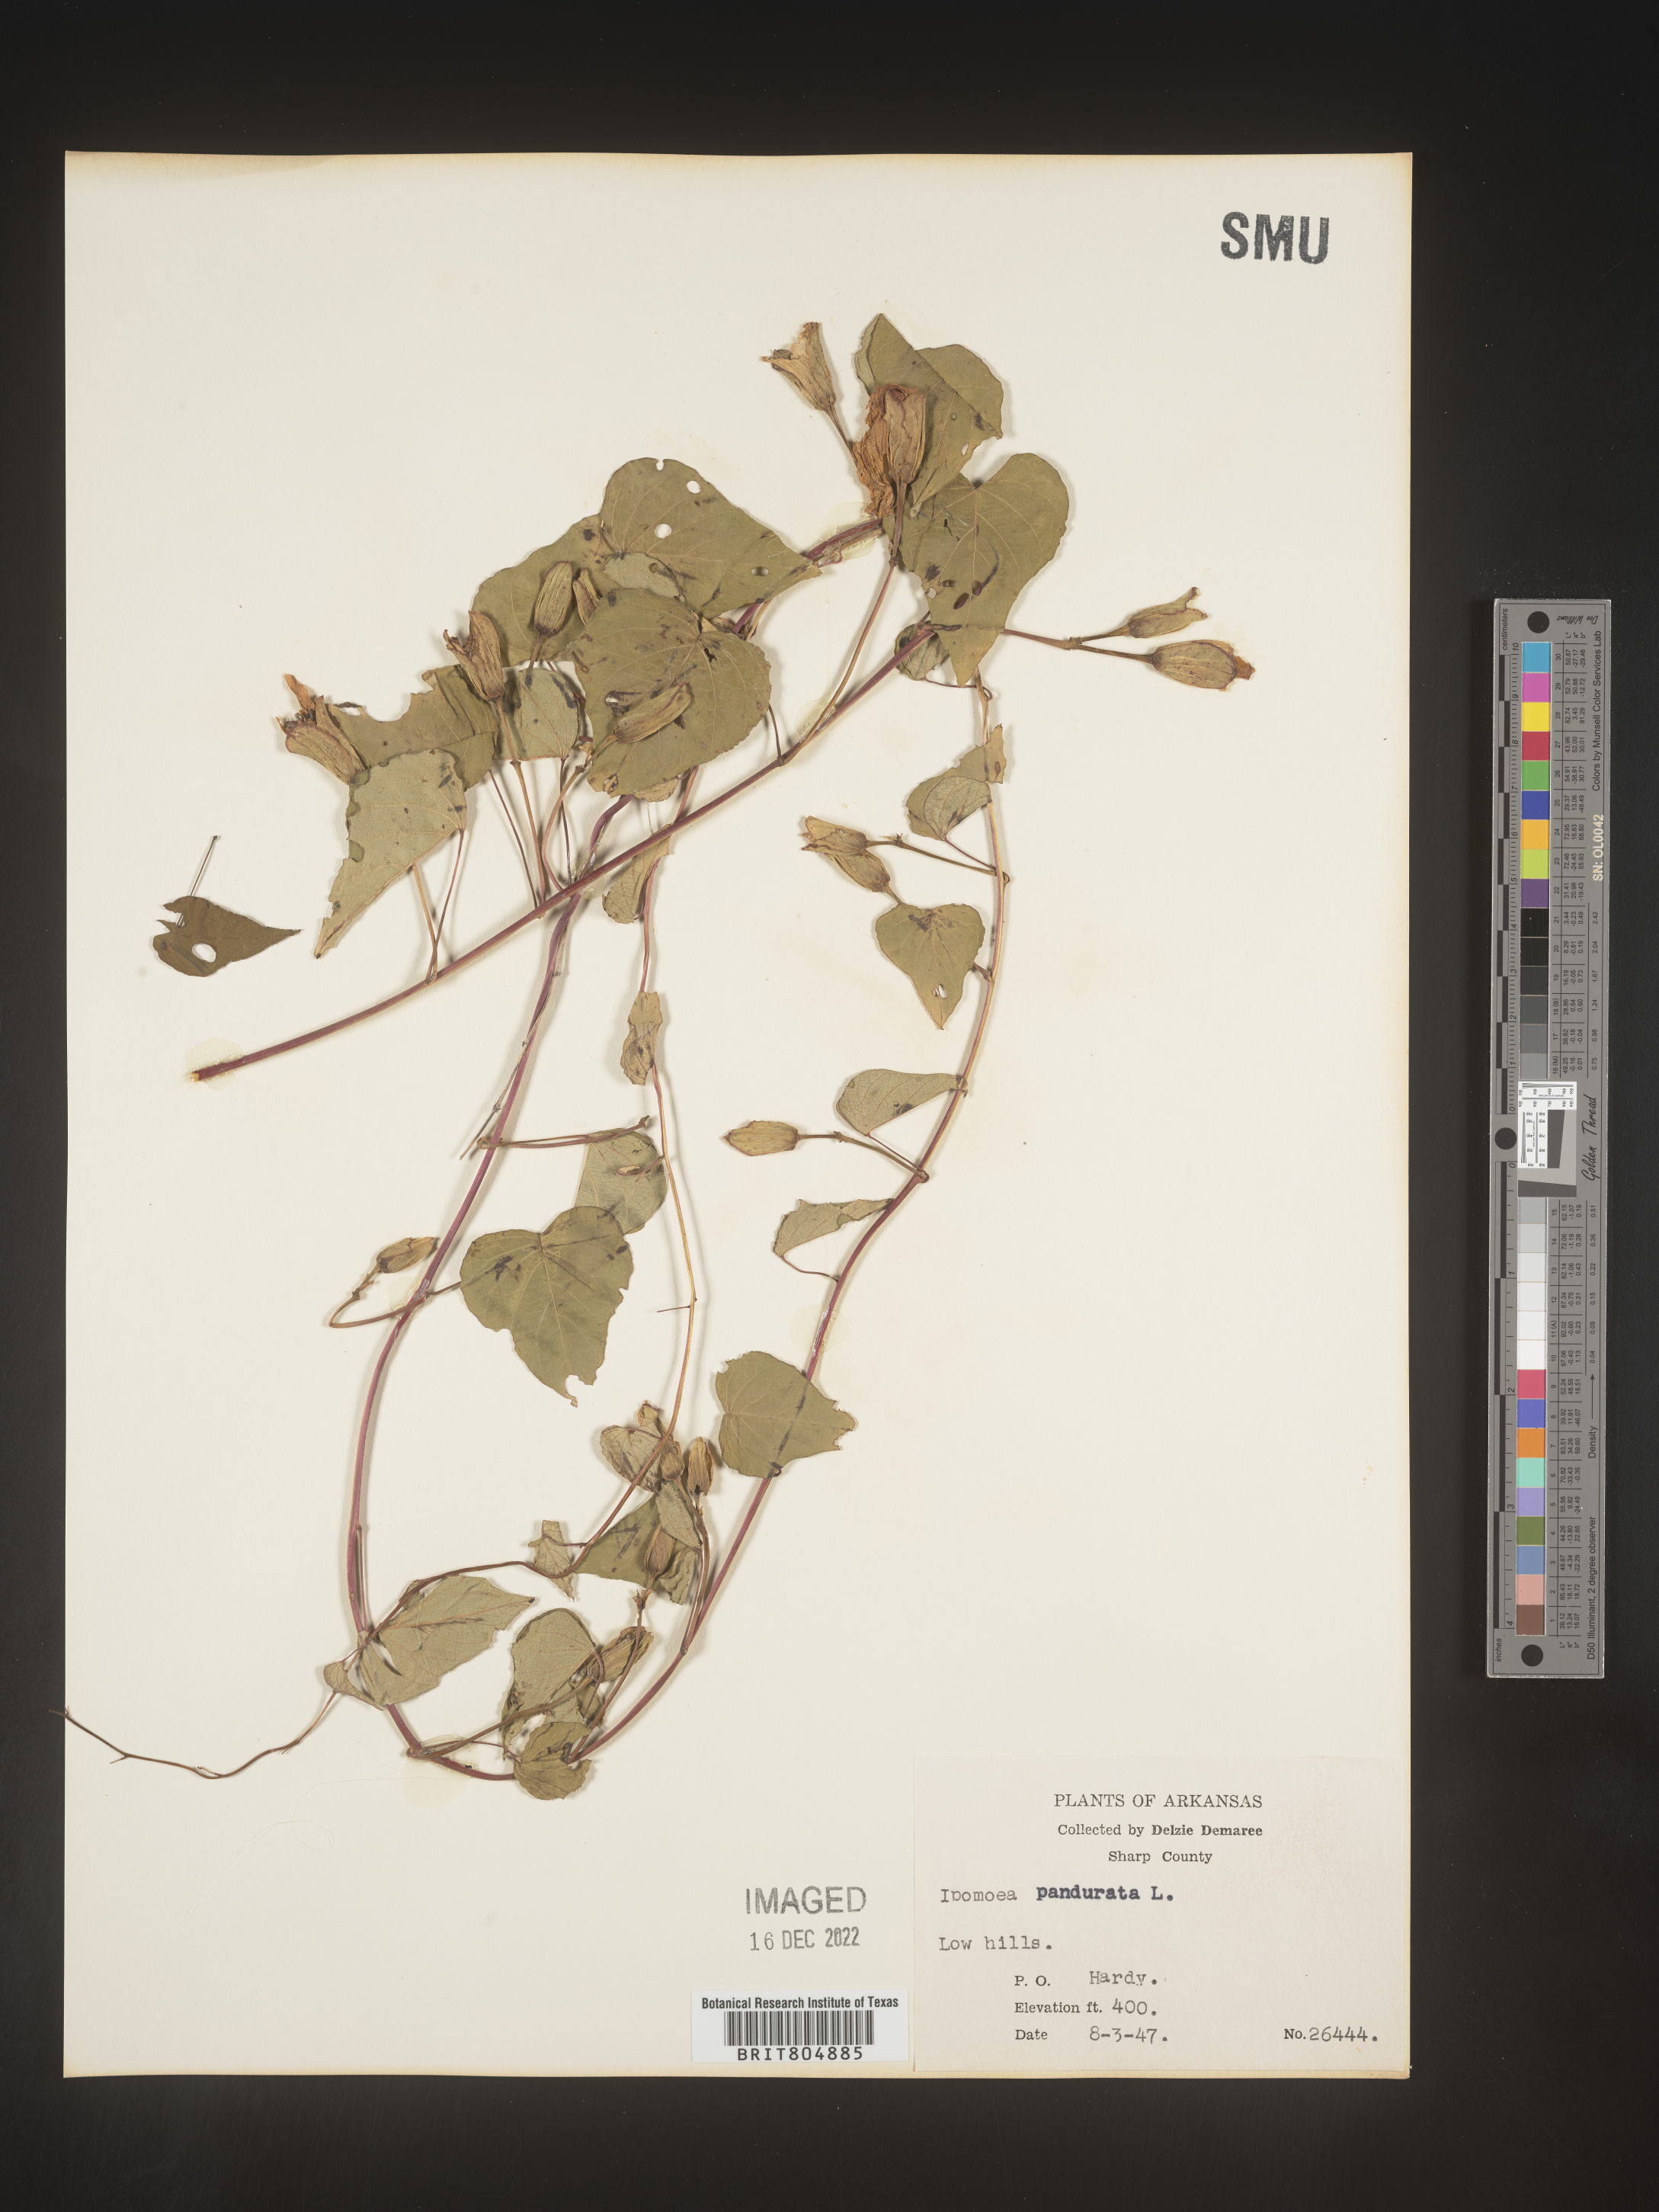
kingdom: Plantae
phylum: Tracheophyta
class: Magnoliopsida
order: Solanales
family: Convolvulaceae
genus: Ipomoea
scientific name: Ipomoea pandurata
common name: Man-of-the-earth
